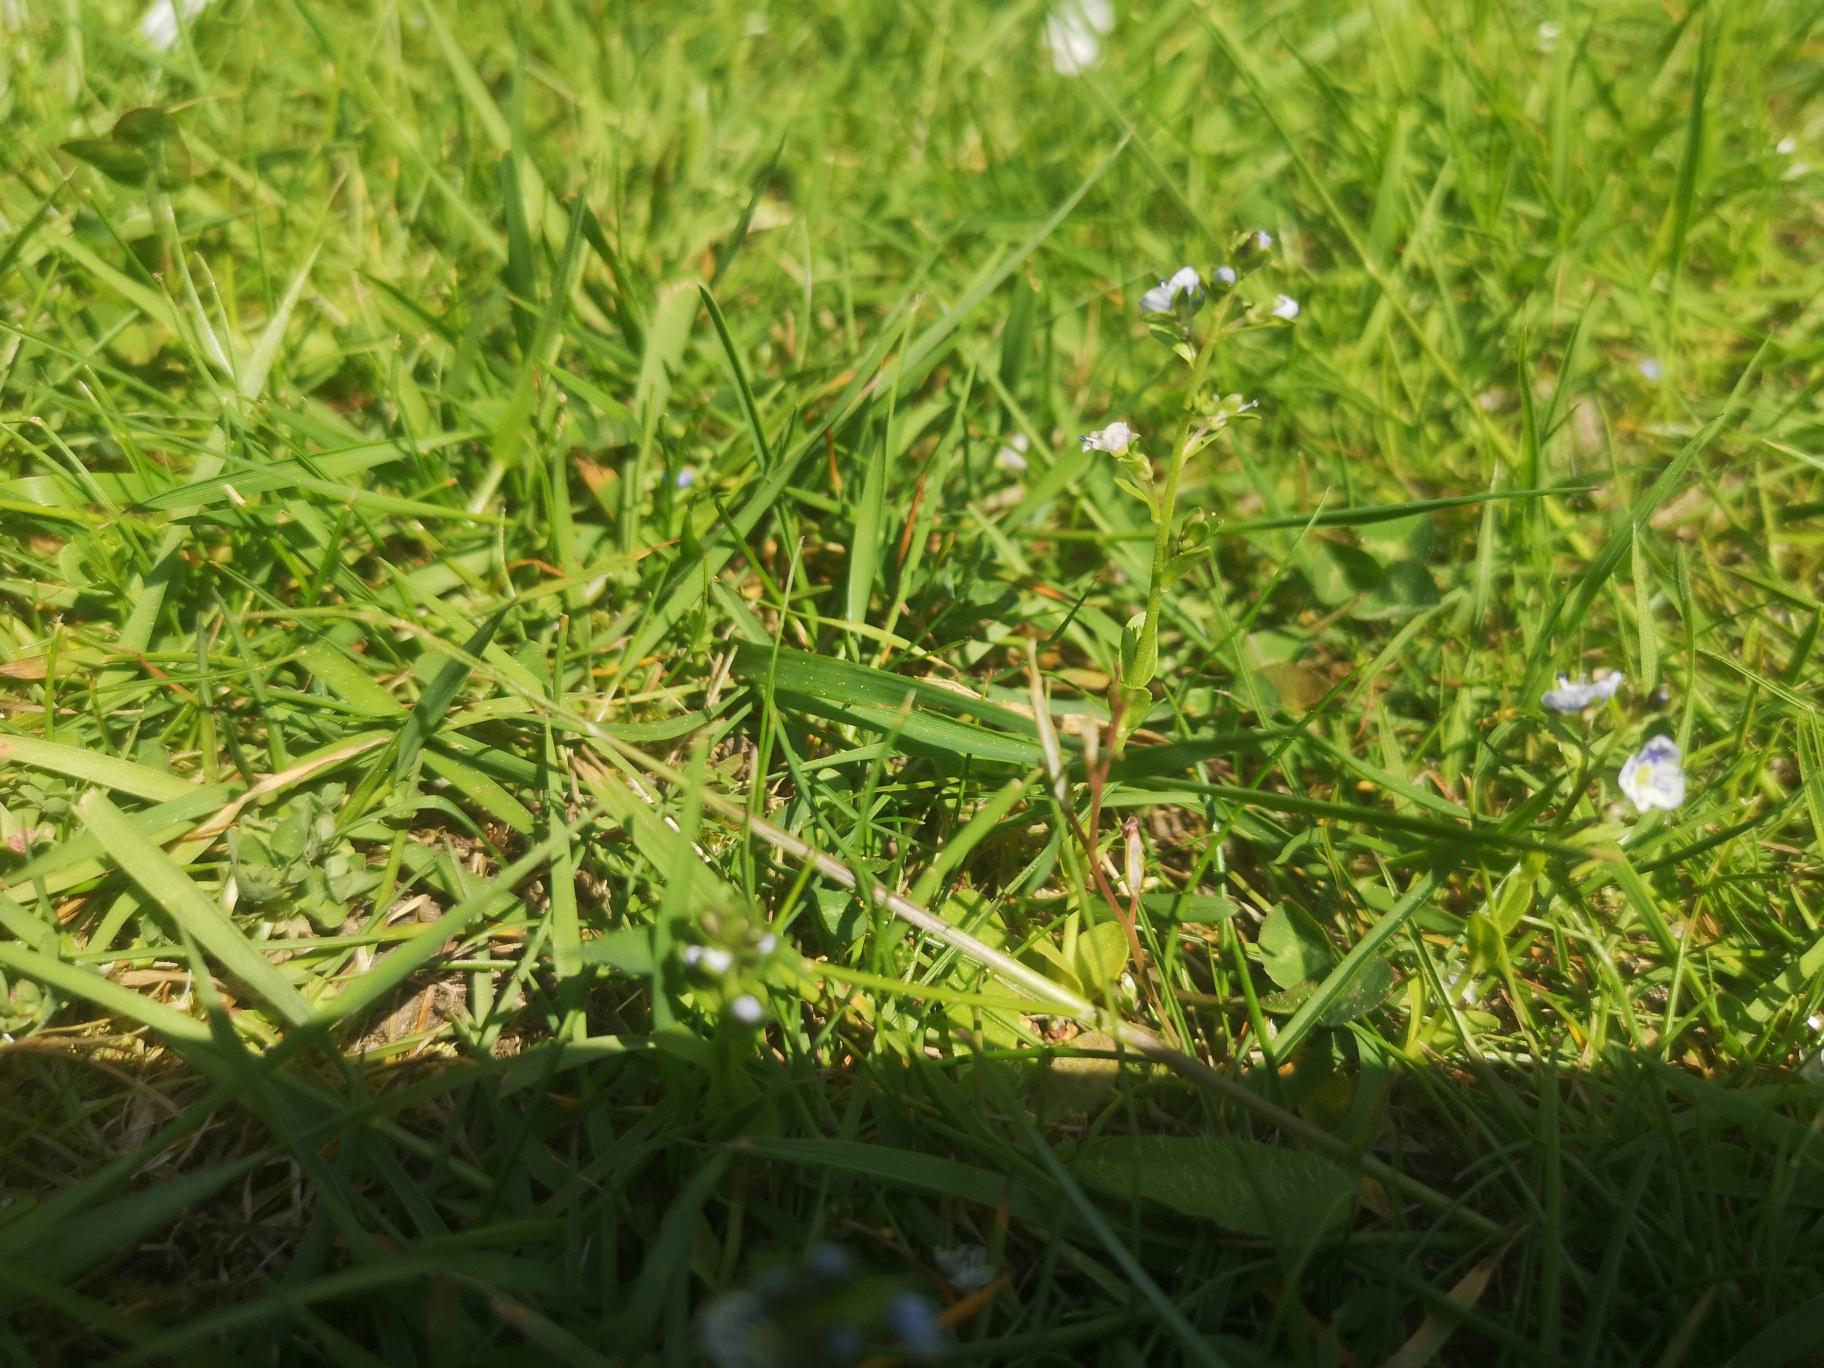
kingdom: Plantae
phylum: Tracheophyta
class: Magnoliopsida
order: Lamiales
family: Plantaginaceae
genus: Veronica
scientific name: Veronica serpyllifolia
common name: Glat ærenpris
